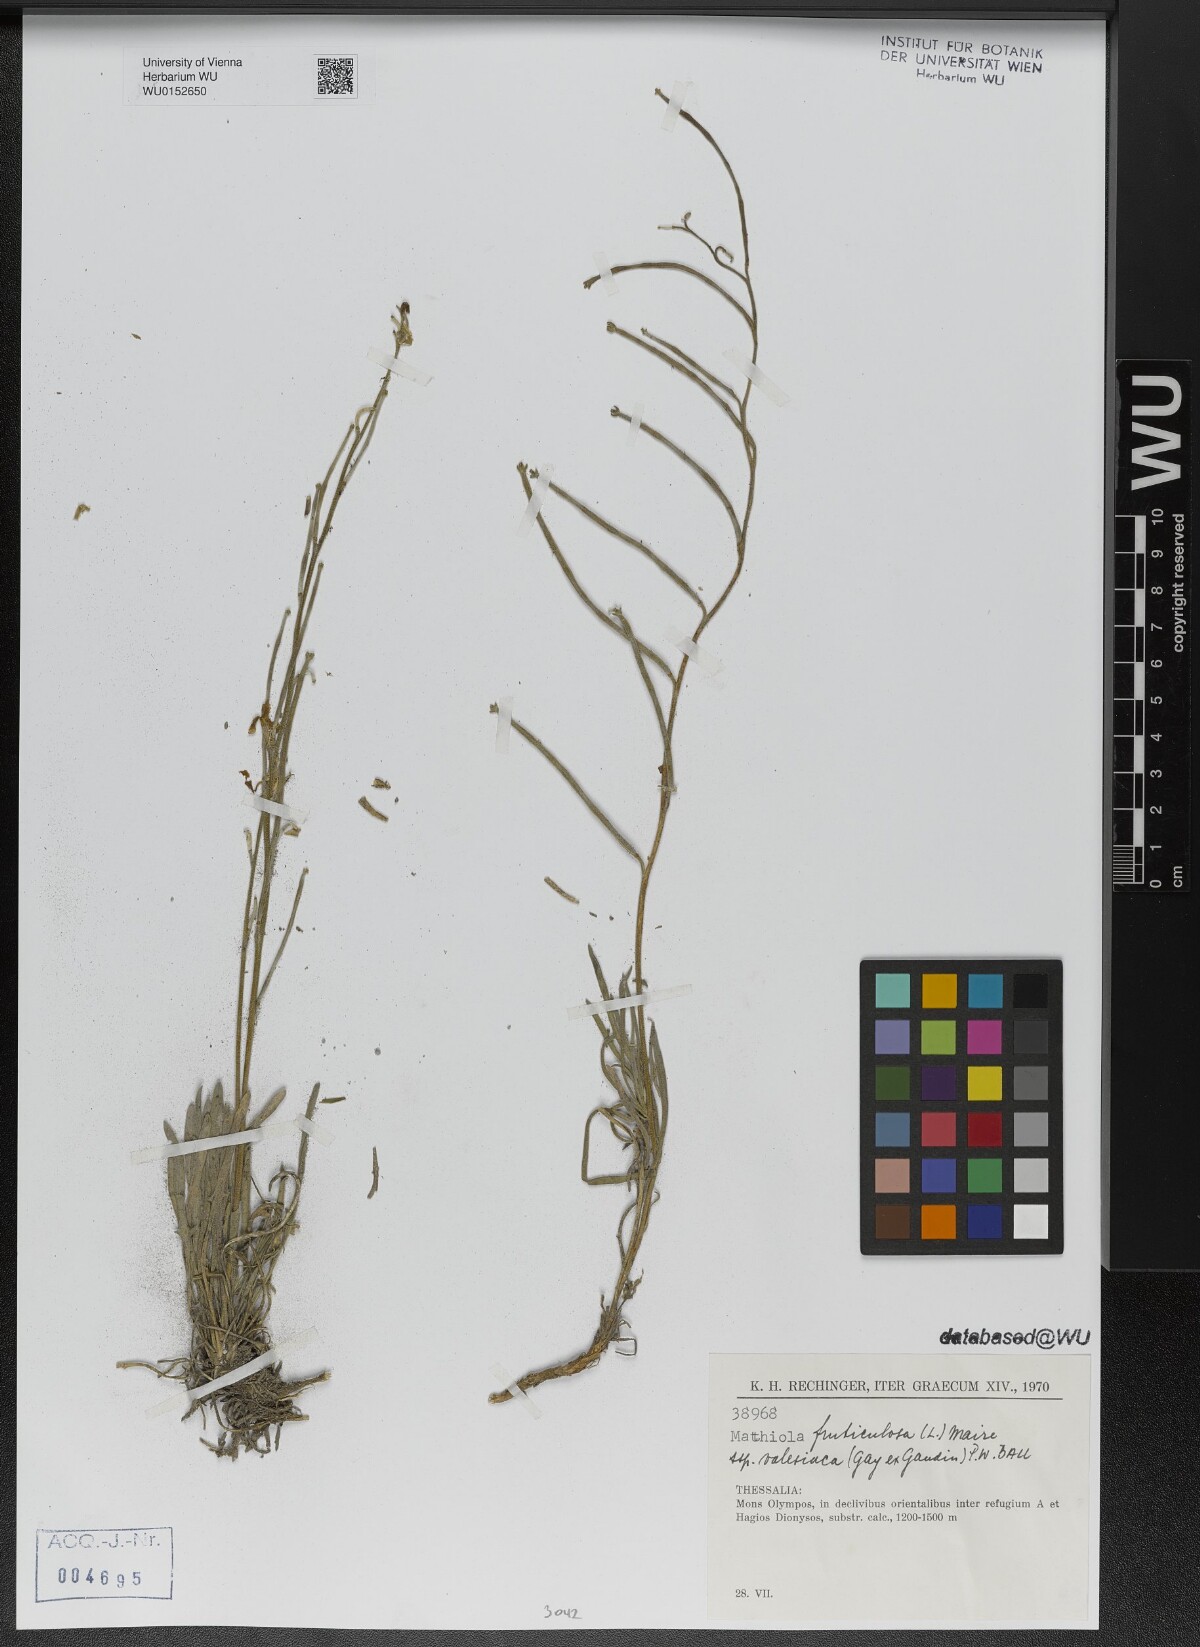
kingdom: Plantae
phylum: Tracheophyta
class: Magnoliopsida
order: Brassicales
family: Brassicaceae
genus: Matthiola
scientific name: Matthiola fruticulosa
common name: Sad stock
